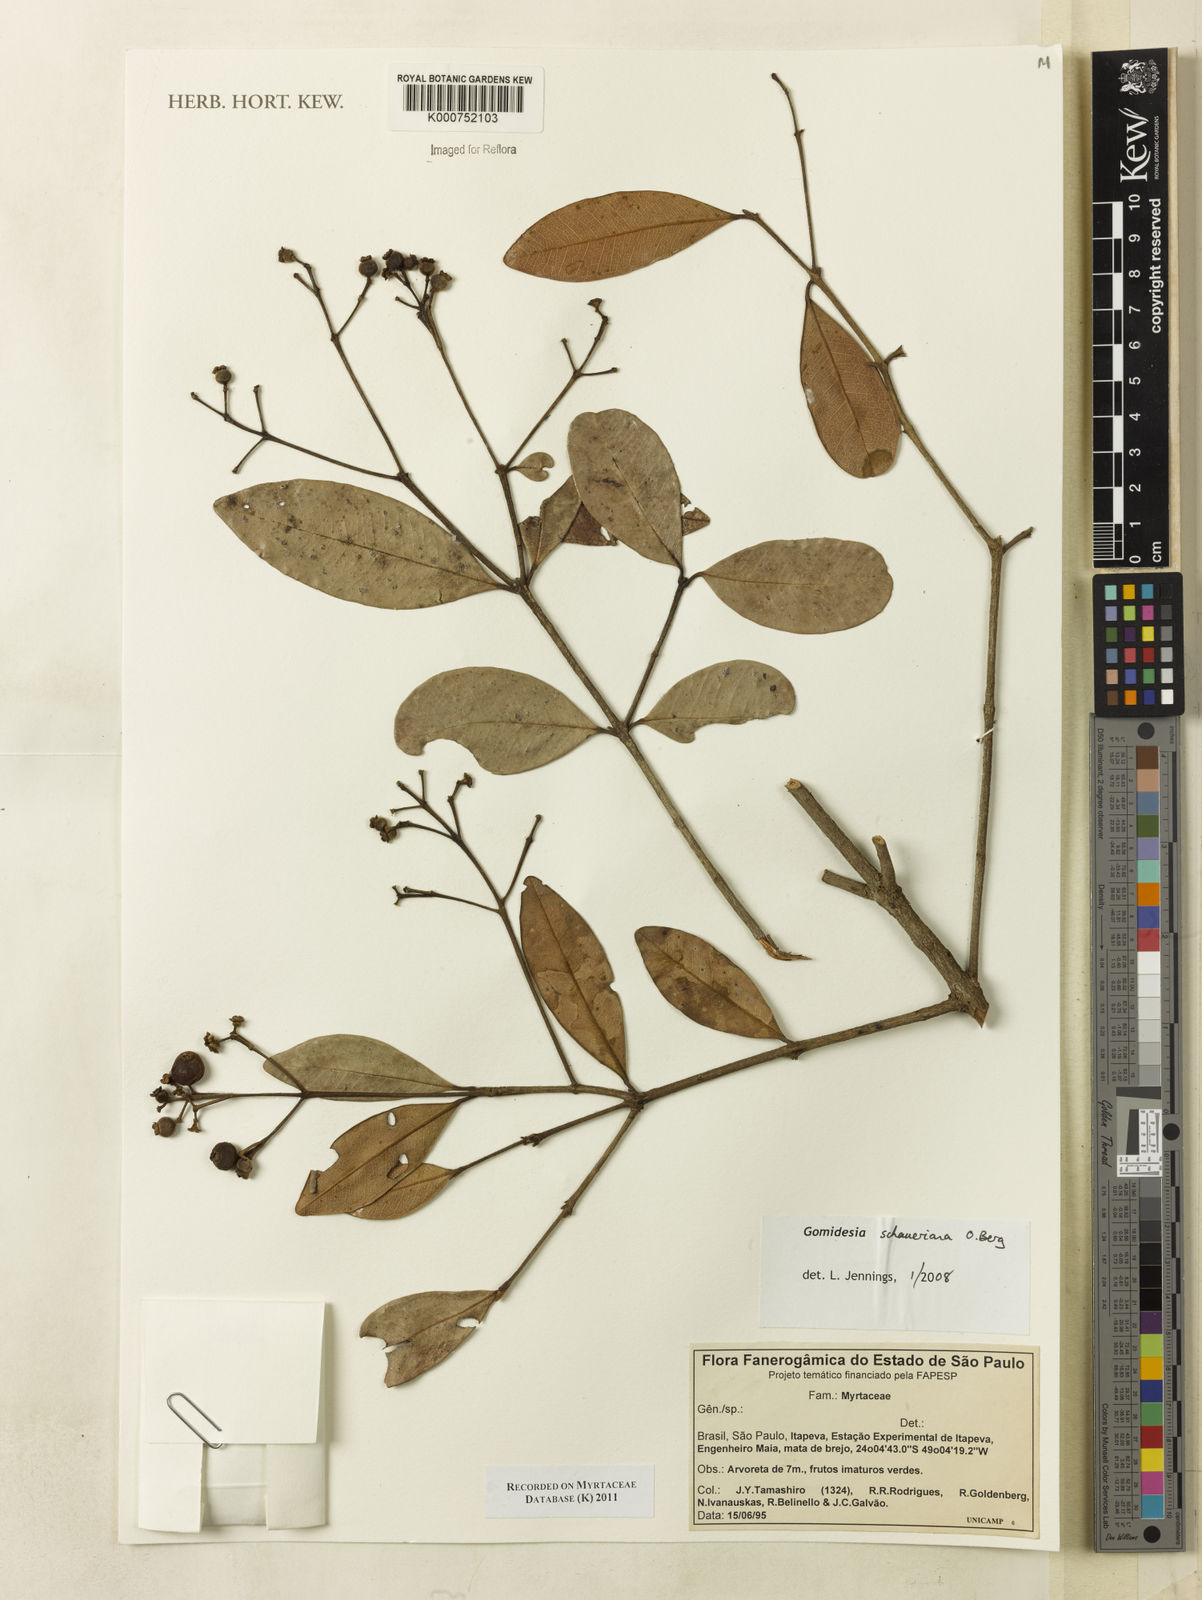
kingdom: Plantae
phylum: Tracheophyta
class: Magnoliopsida
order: Laurales
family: Lauraceae
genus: Ocotea
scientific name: Ocotea puberula
